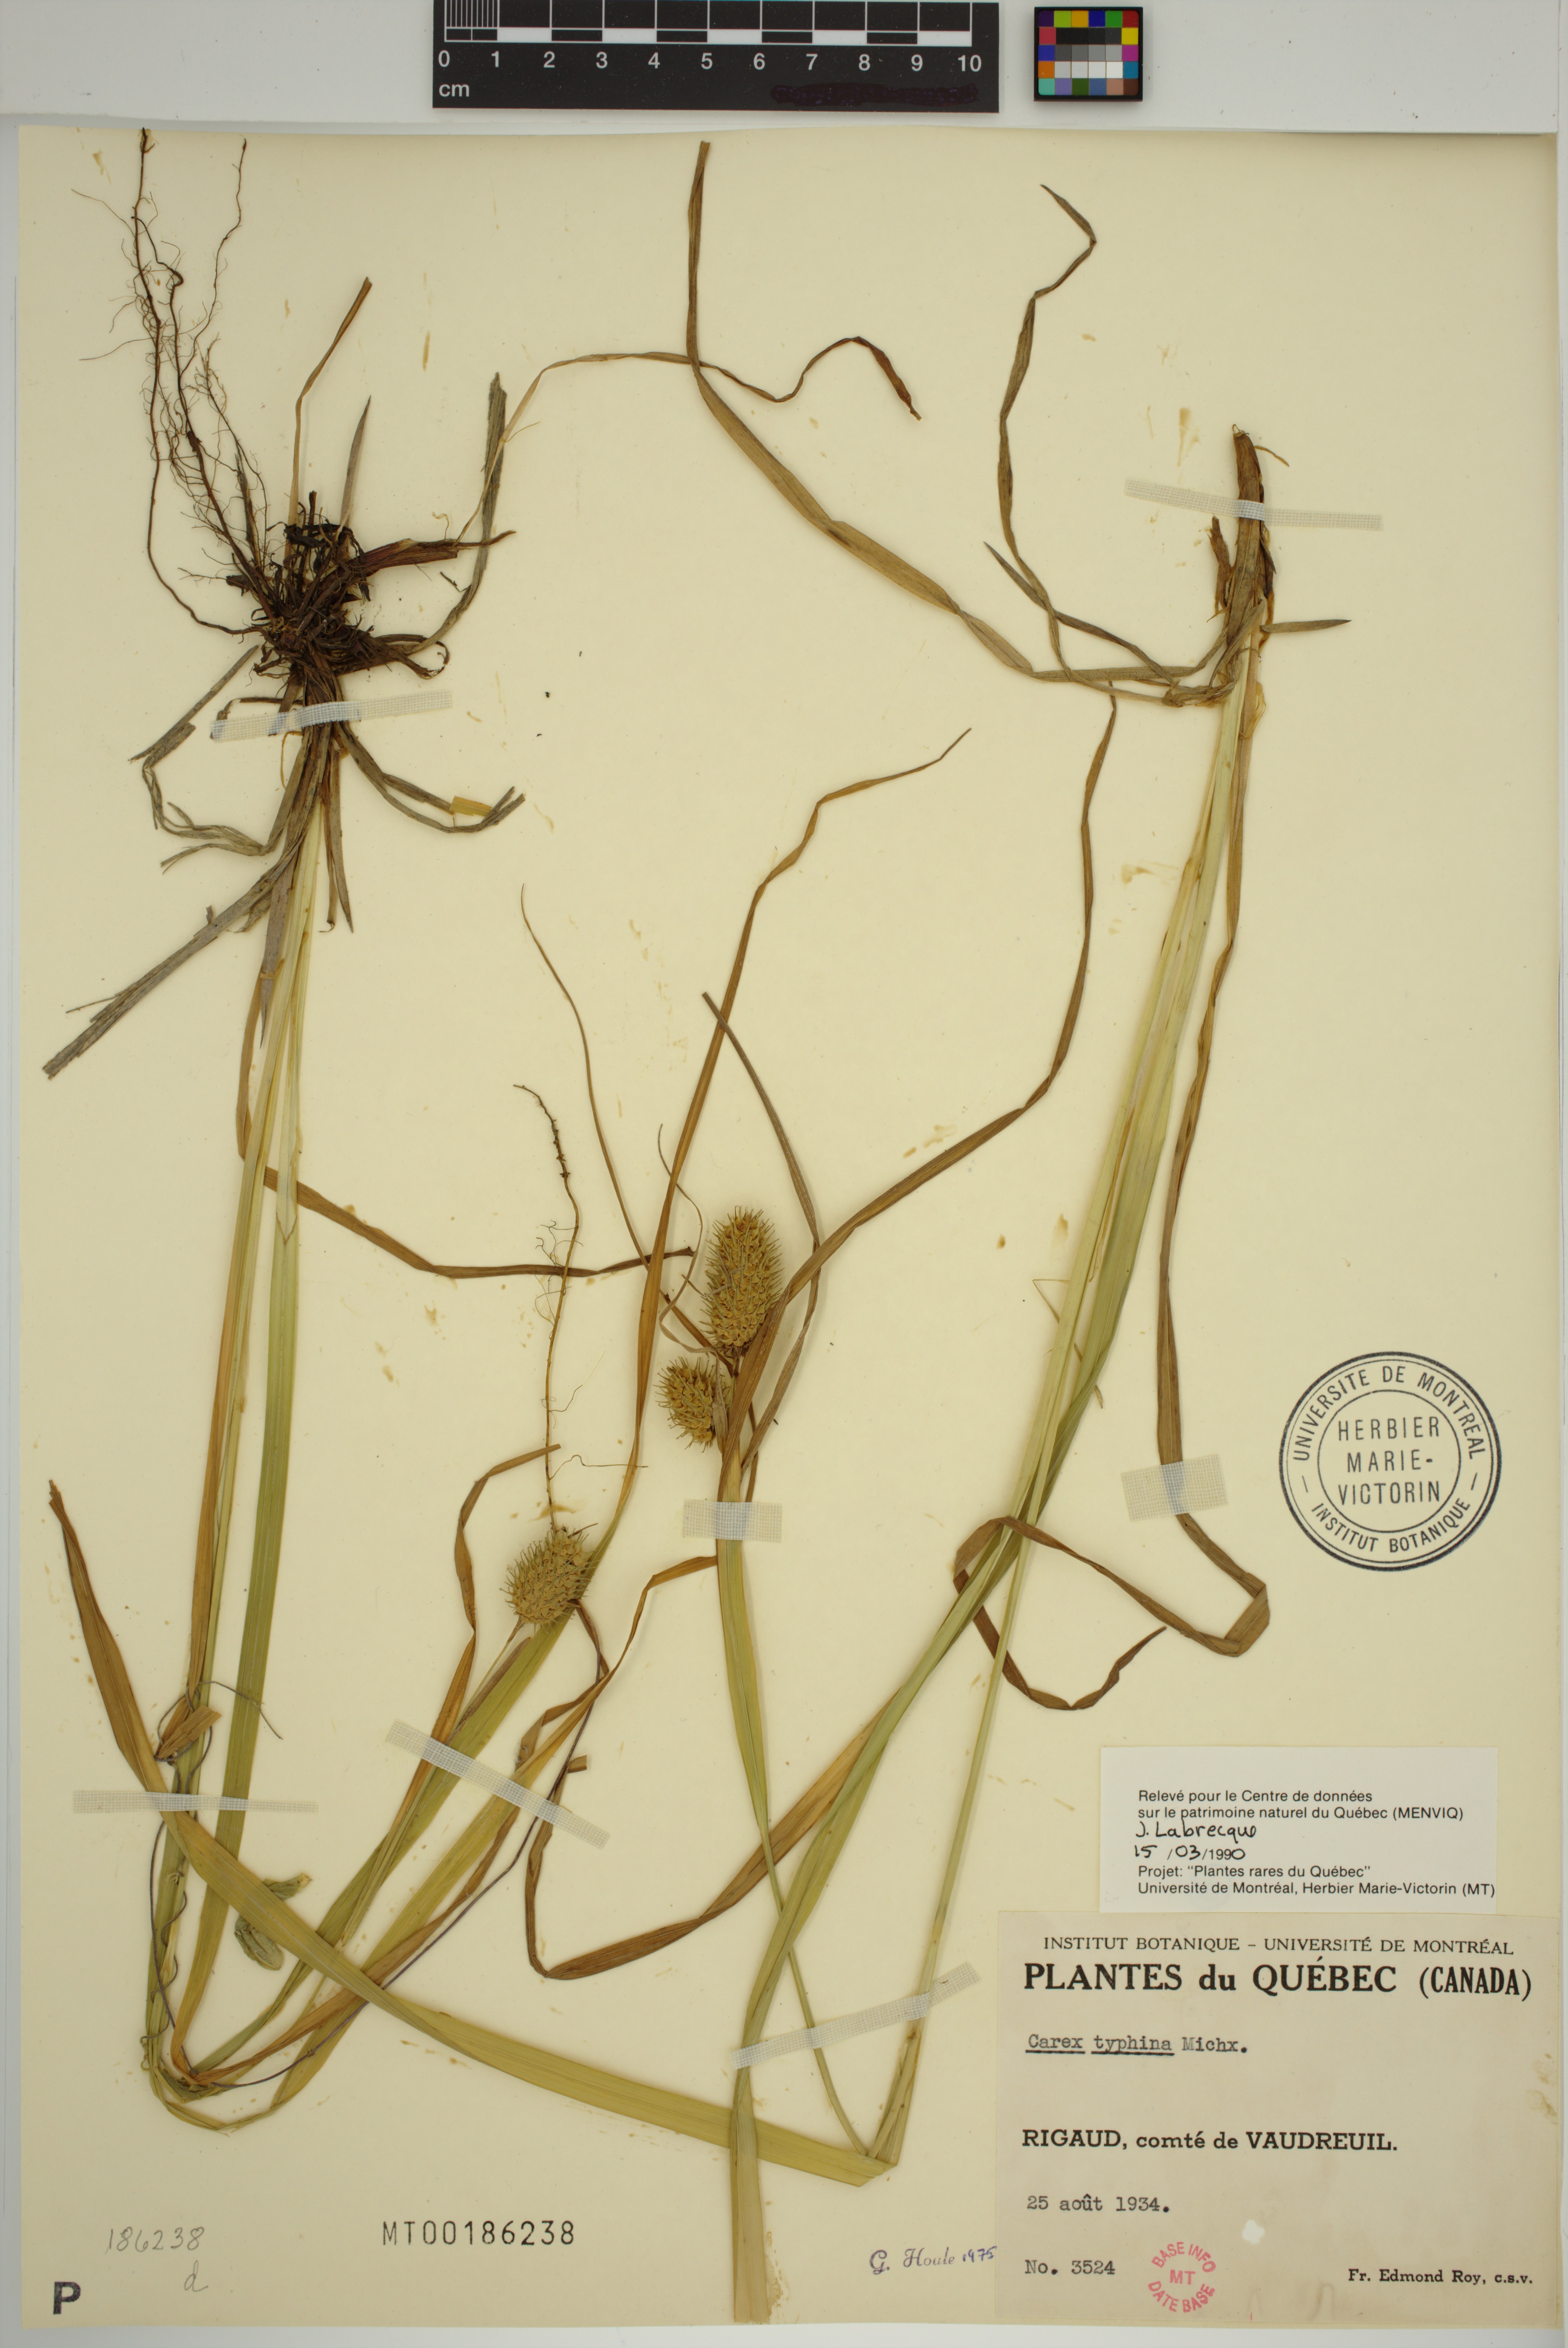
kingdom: Plantae
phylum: Tracheophyta
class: Liliopsida
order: Poales
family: Cyperaceae
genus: Carex
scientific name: Carex typhina
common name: Cattail sedge
